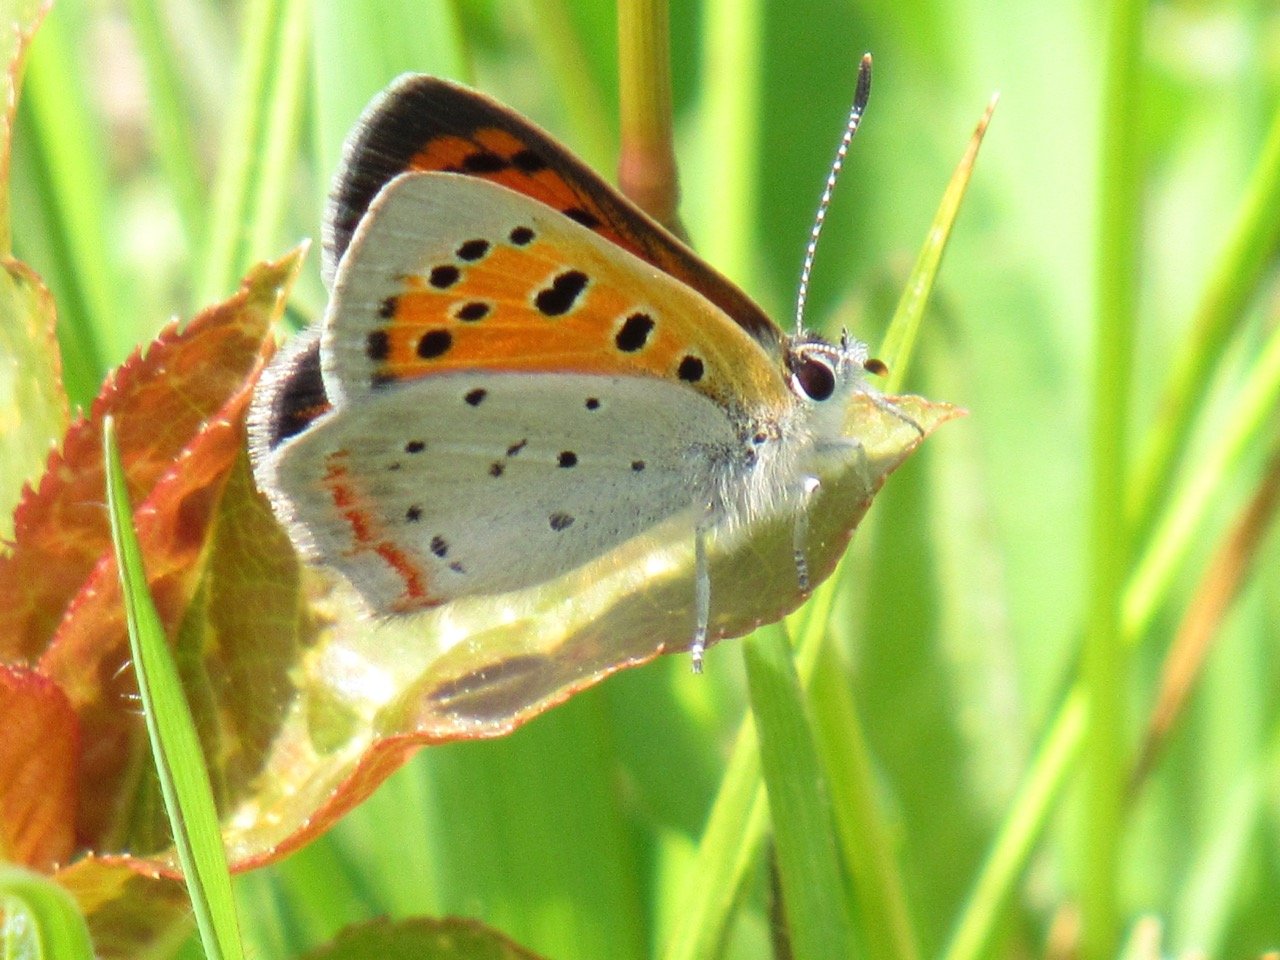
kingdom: Animalia
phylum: Arthropoda
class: Insecta
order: Lepidoptera
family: Lycaenidae
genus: Lycaena
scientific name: Lycaena phlaeas
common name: American Copper
